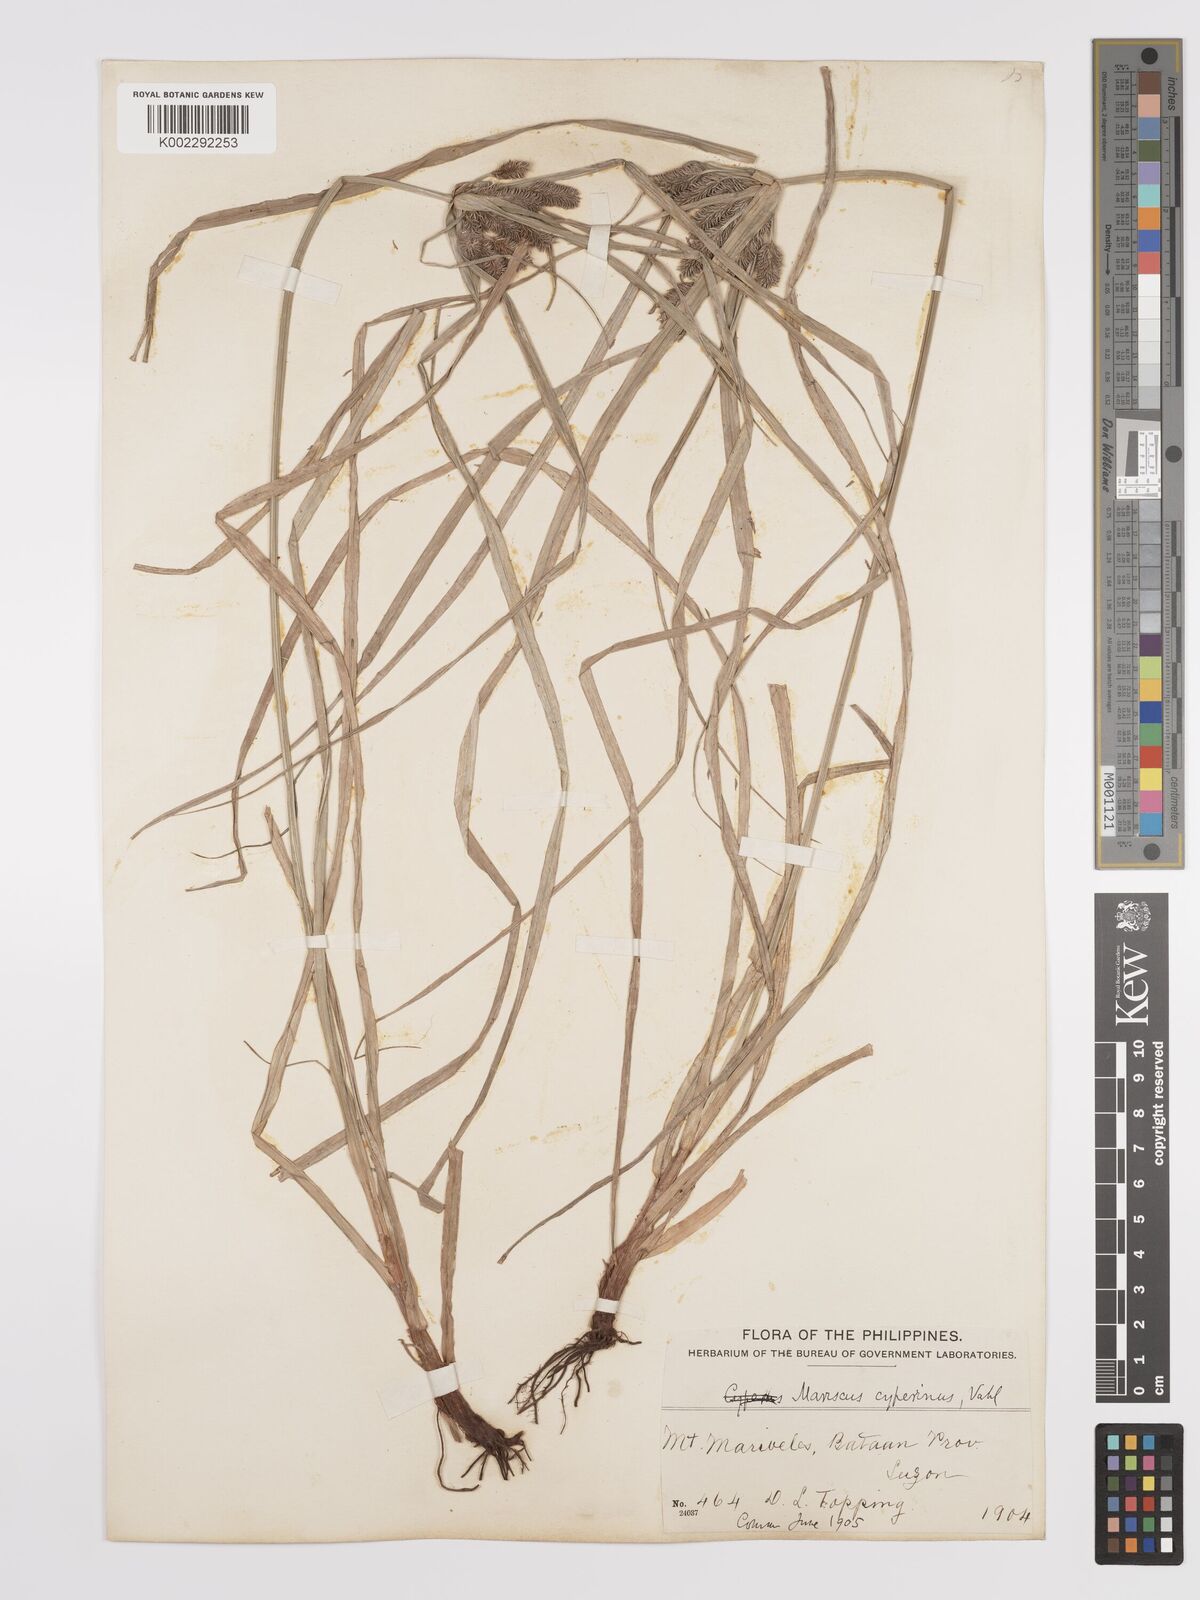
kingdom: Plantae
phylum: Tracheophyta
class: Liliopsida
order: Poales
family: Cyperaceae
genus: Cyperus
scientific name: Cyperus cyperinus
